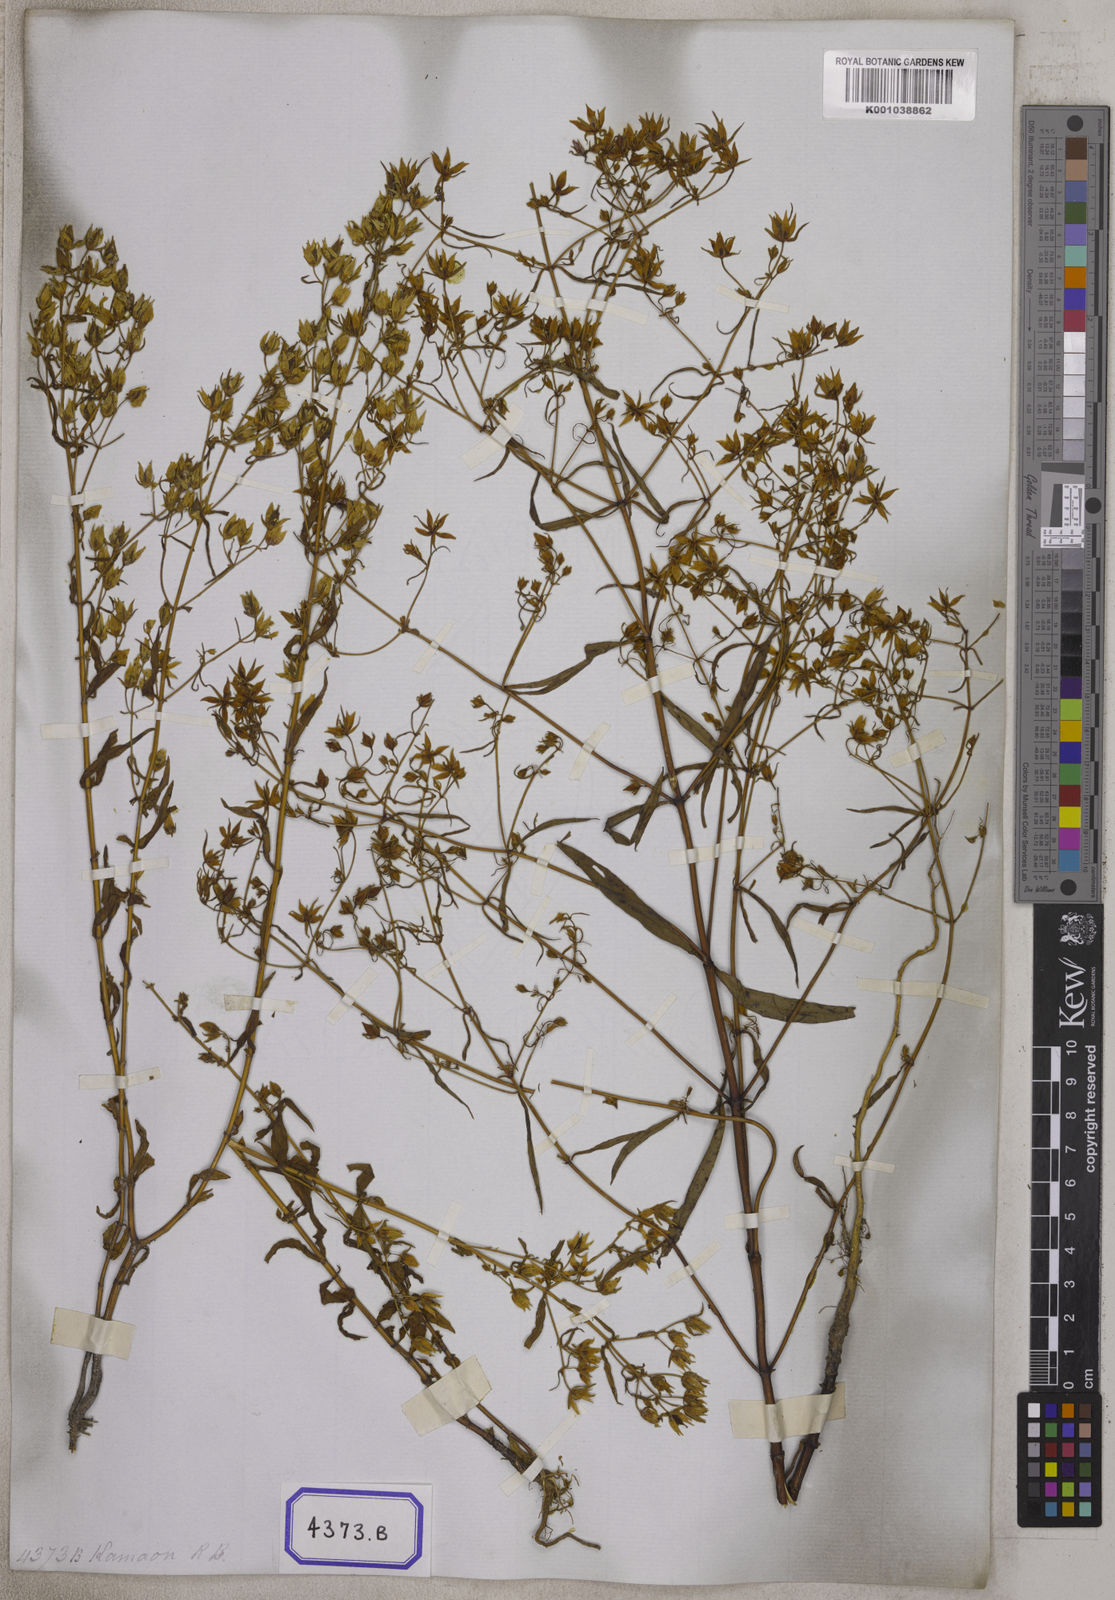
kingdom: Plantae
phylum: Tracheophyta
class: Magnoliopsida
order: Gentianales
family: Gentianaceae
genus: Swertia
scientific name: Swertia angustifolia
